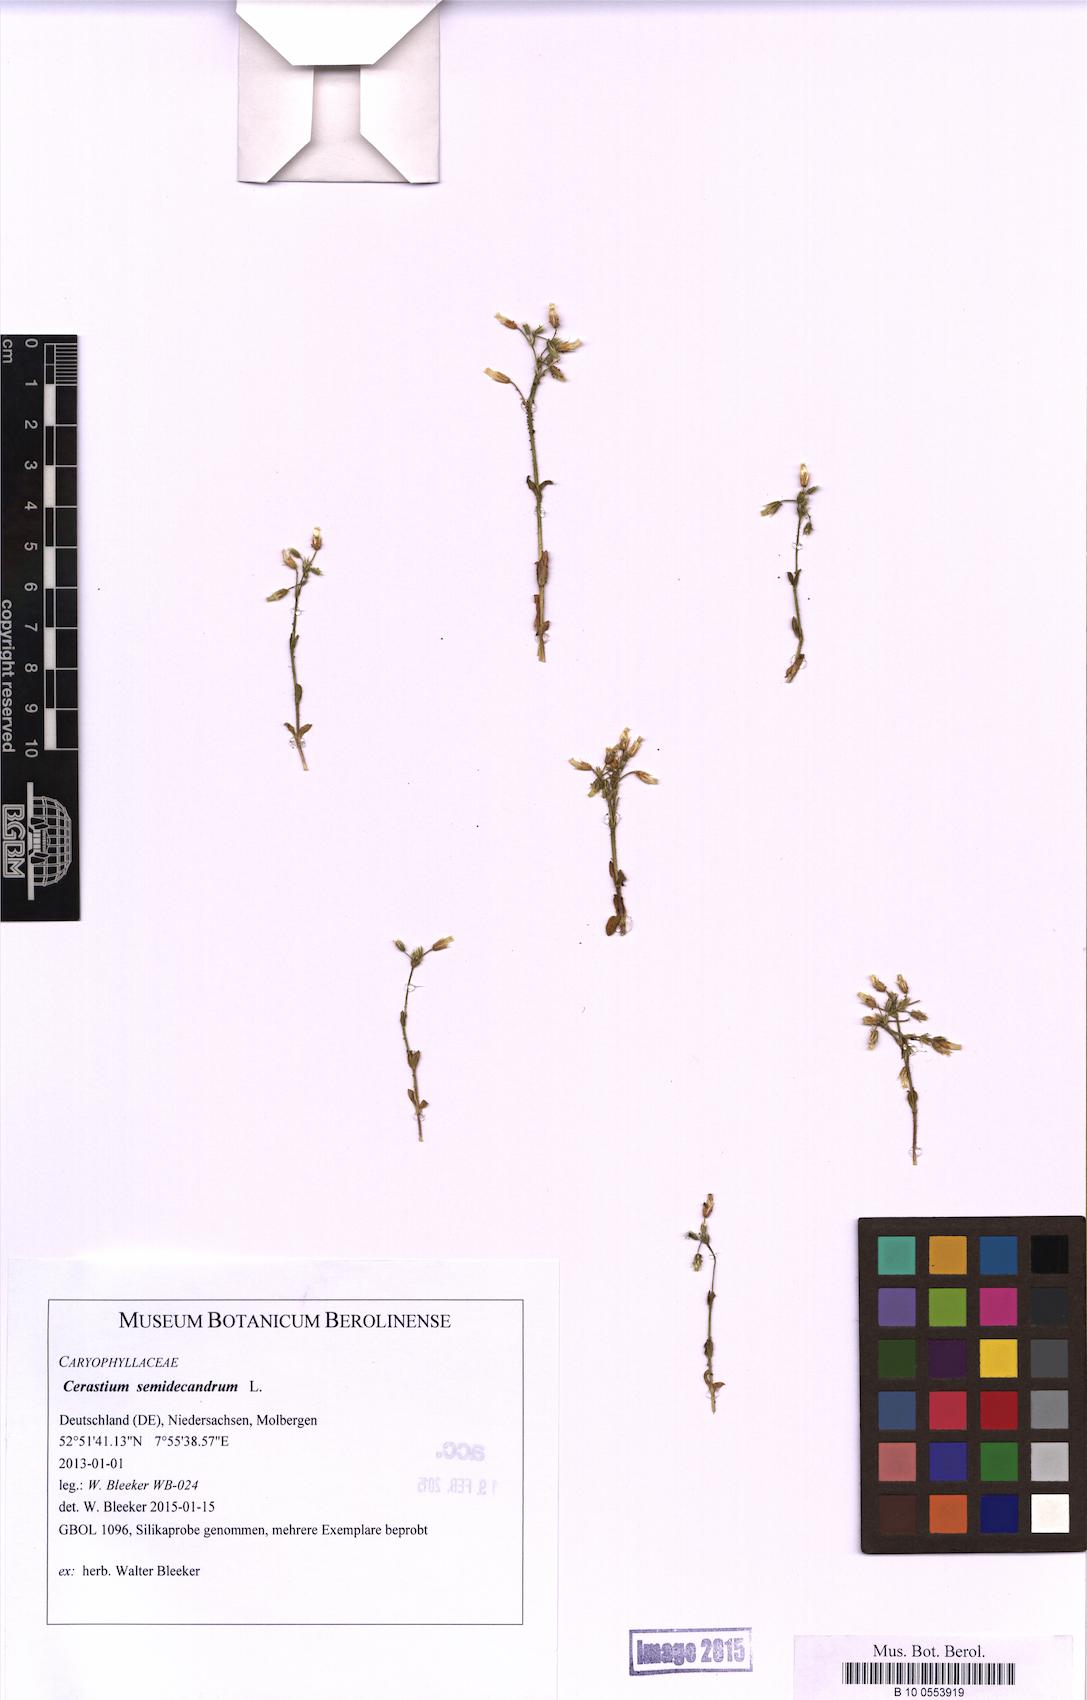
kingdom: Plantae
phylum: Tracheophyta
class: Magnoliopsida
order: Caryophyllales
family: Caryophyllaceae
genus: Cerastium
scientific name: Cerastium semidecandrum
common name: Little mouse-ear
